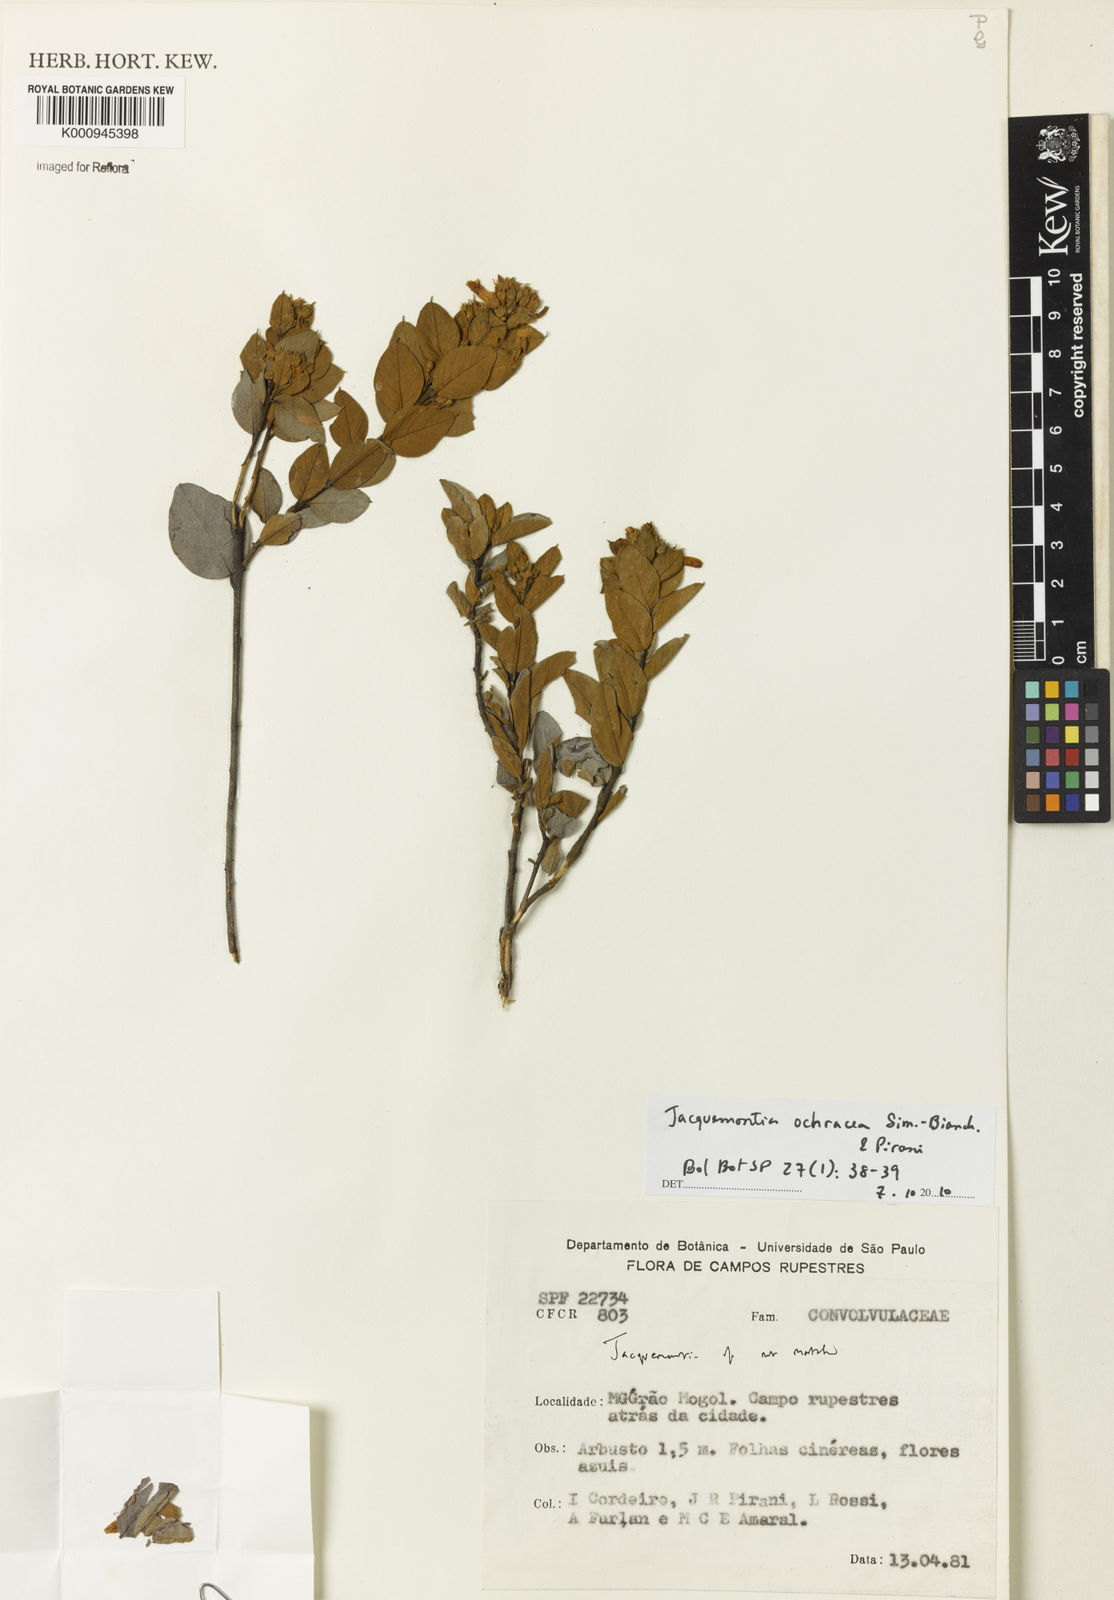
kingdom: Plantae
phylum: Tracheophyta
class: Magnoliopsida
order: Solanales
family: Convolvulaceae
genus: Jacquemontia
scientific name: Jacquemontia ochracea
